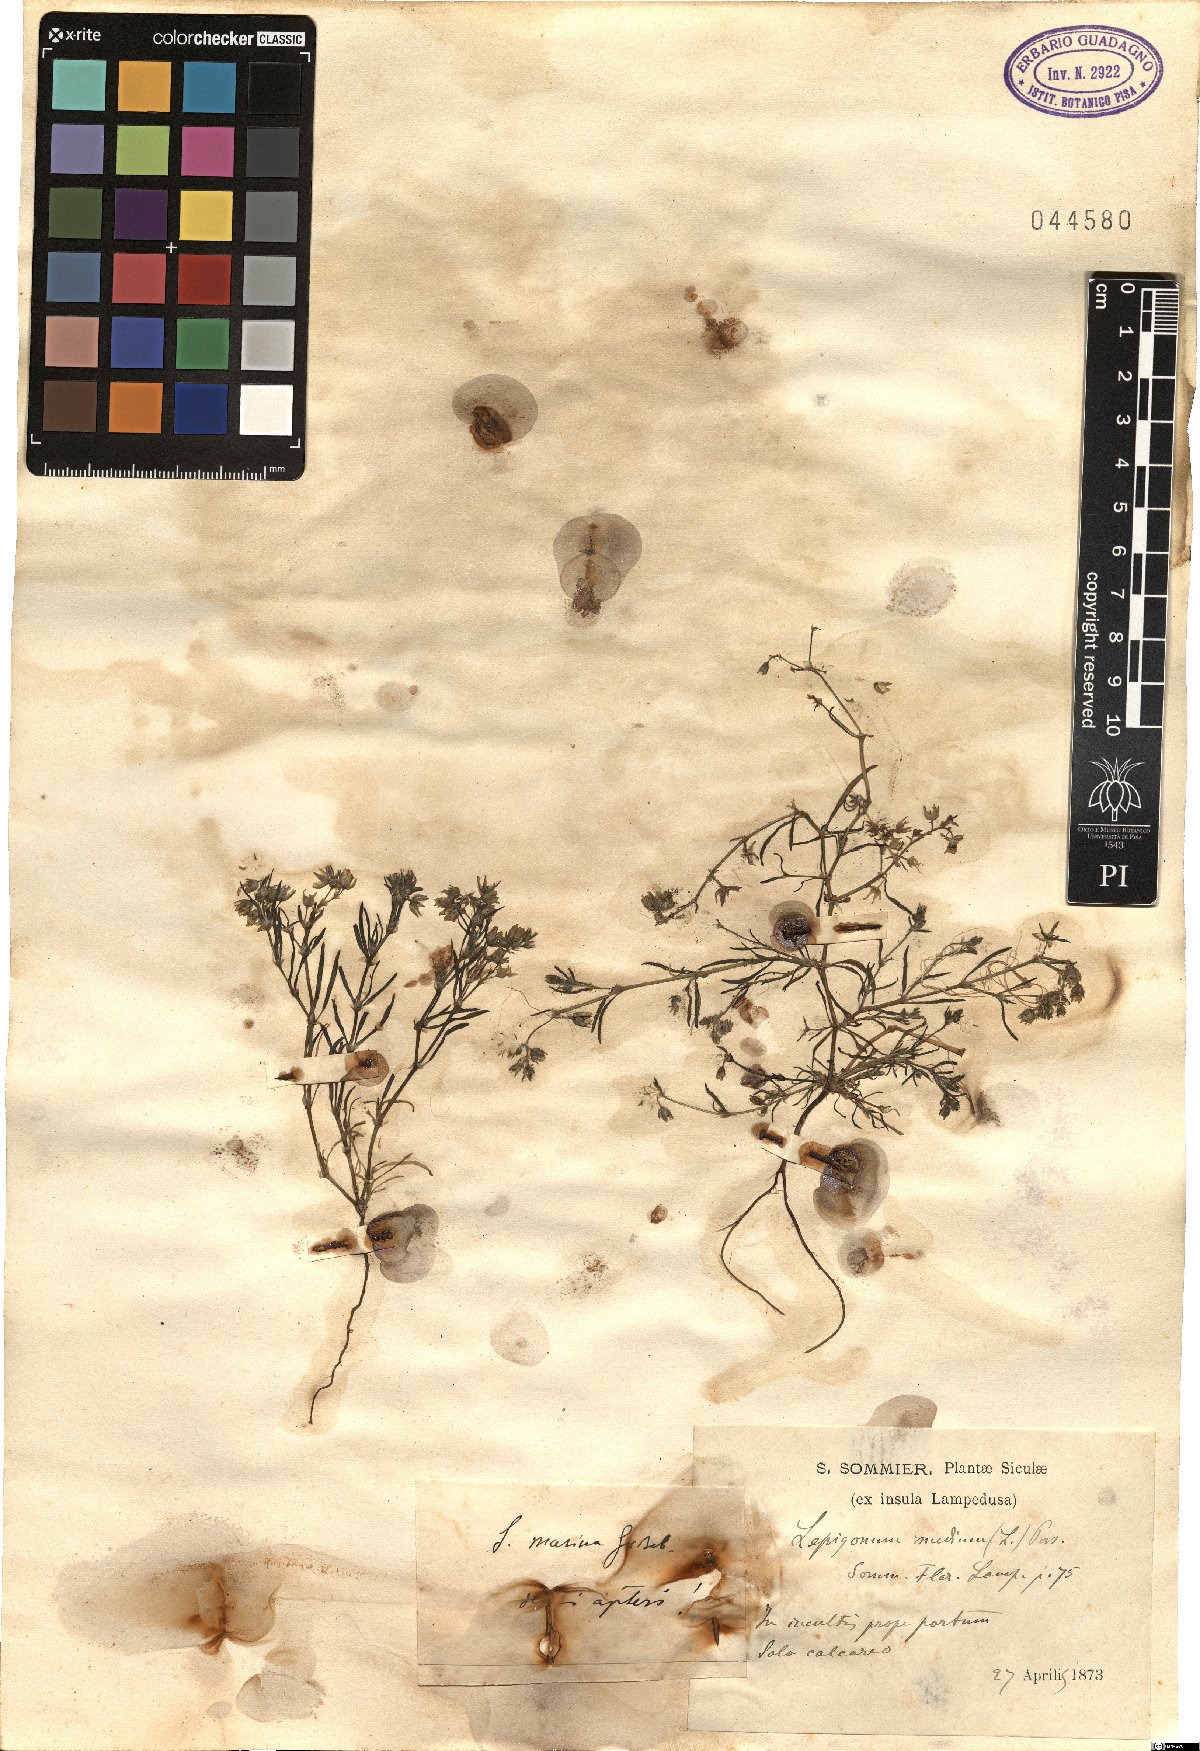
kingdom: Plantae
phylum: Tracheophyta
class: Magnoliopsida
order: Caryophyllales
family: Caryophyllaceae
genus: Spergularia
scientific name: Spergularia marina
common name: Lesser sea-spurrey
